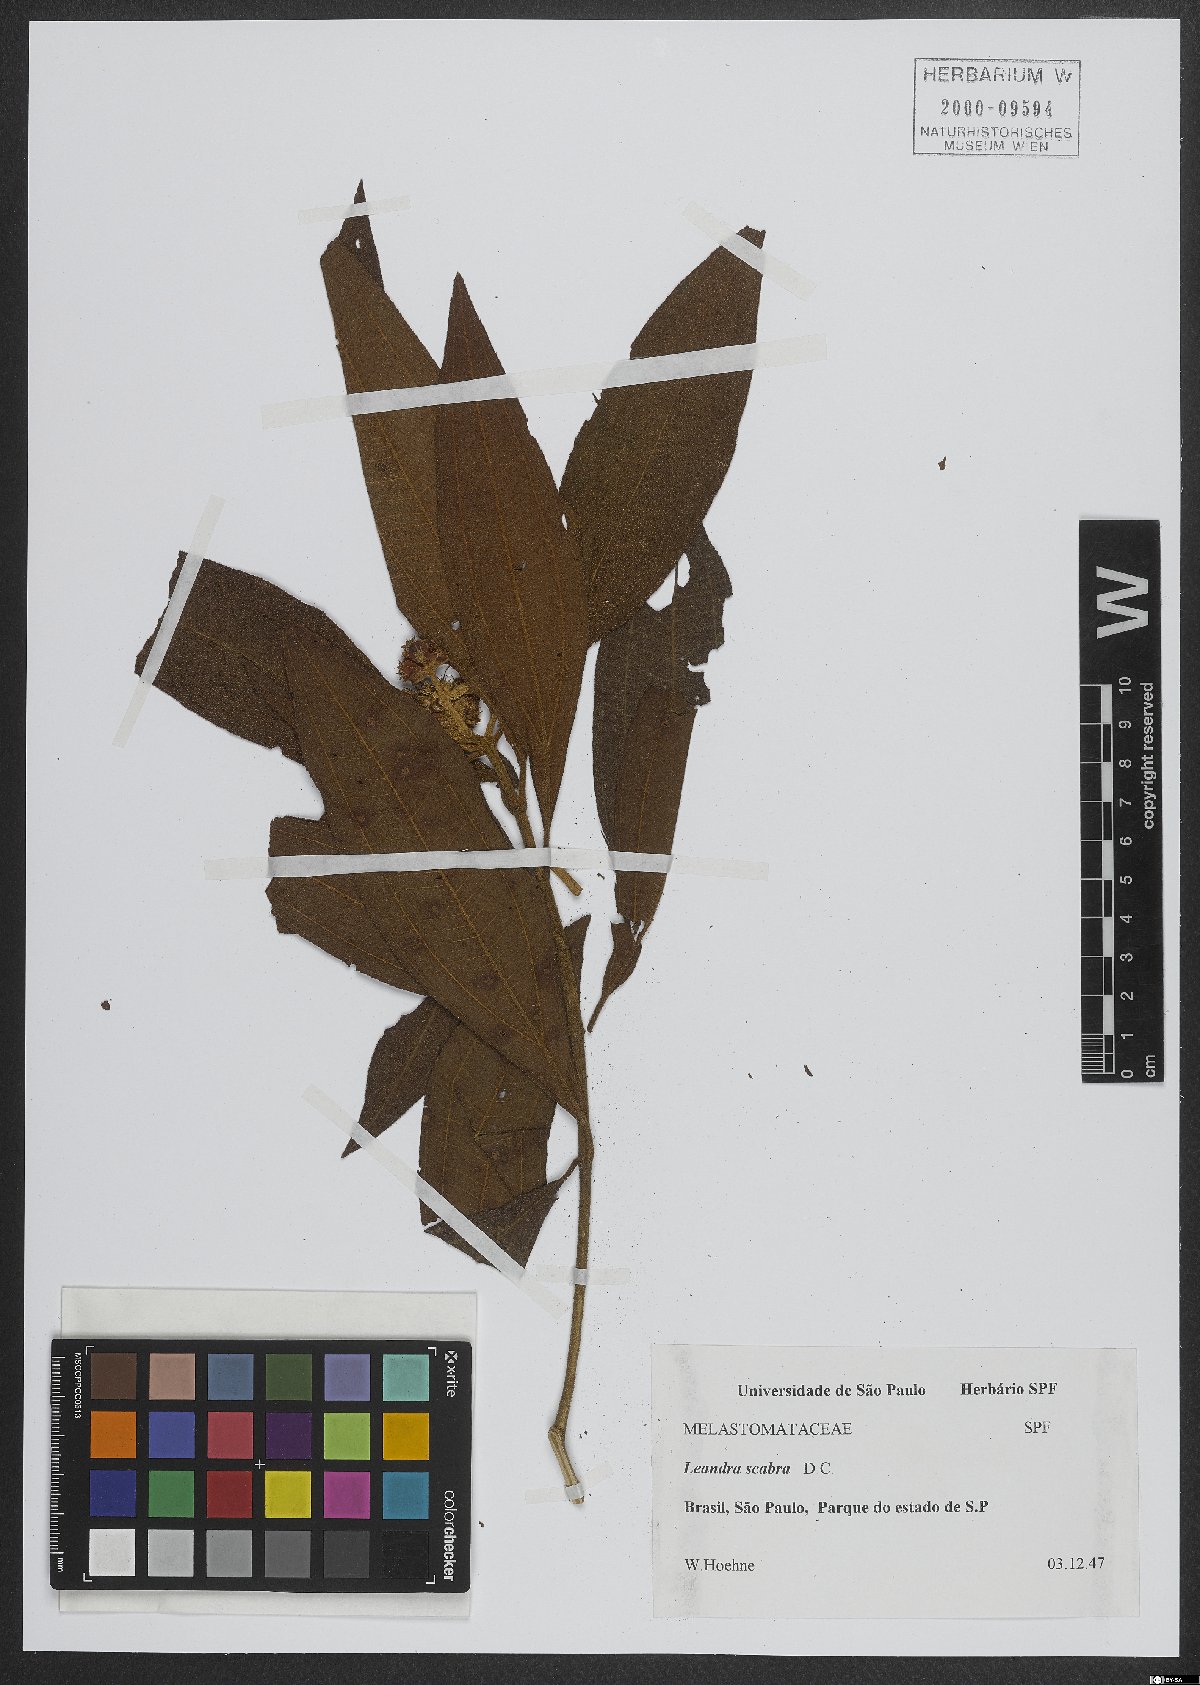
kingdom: Plantae
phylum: Tracheophyta
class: Magnoliopsida
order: Myrtales
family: Melastomataceae
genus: Miconia
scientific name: Miconia melastomoides
